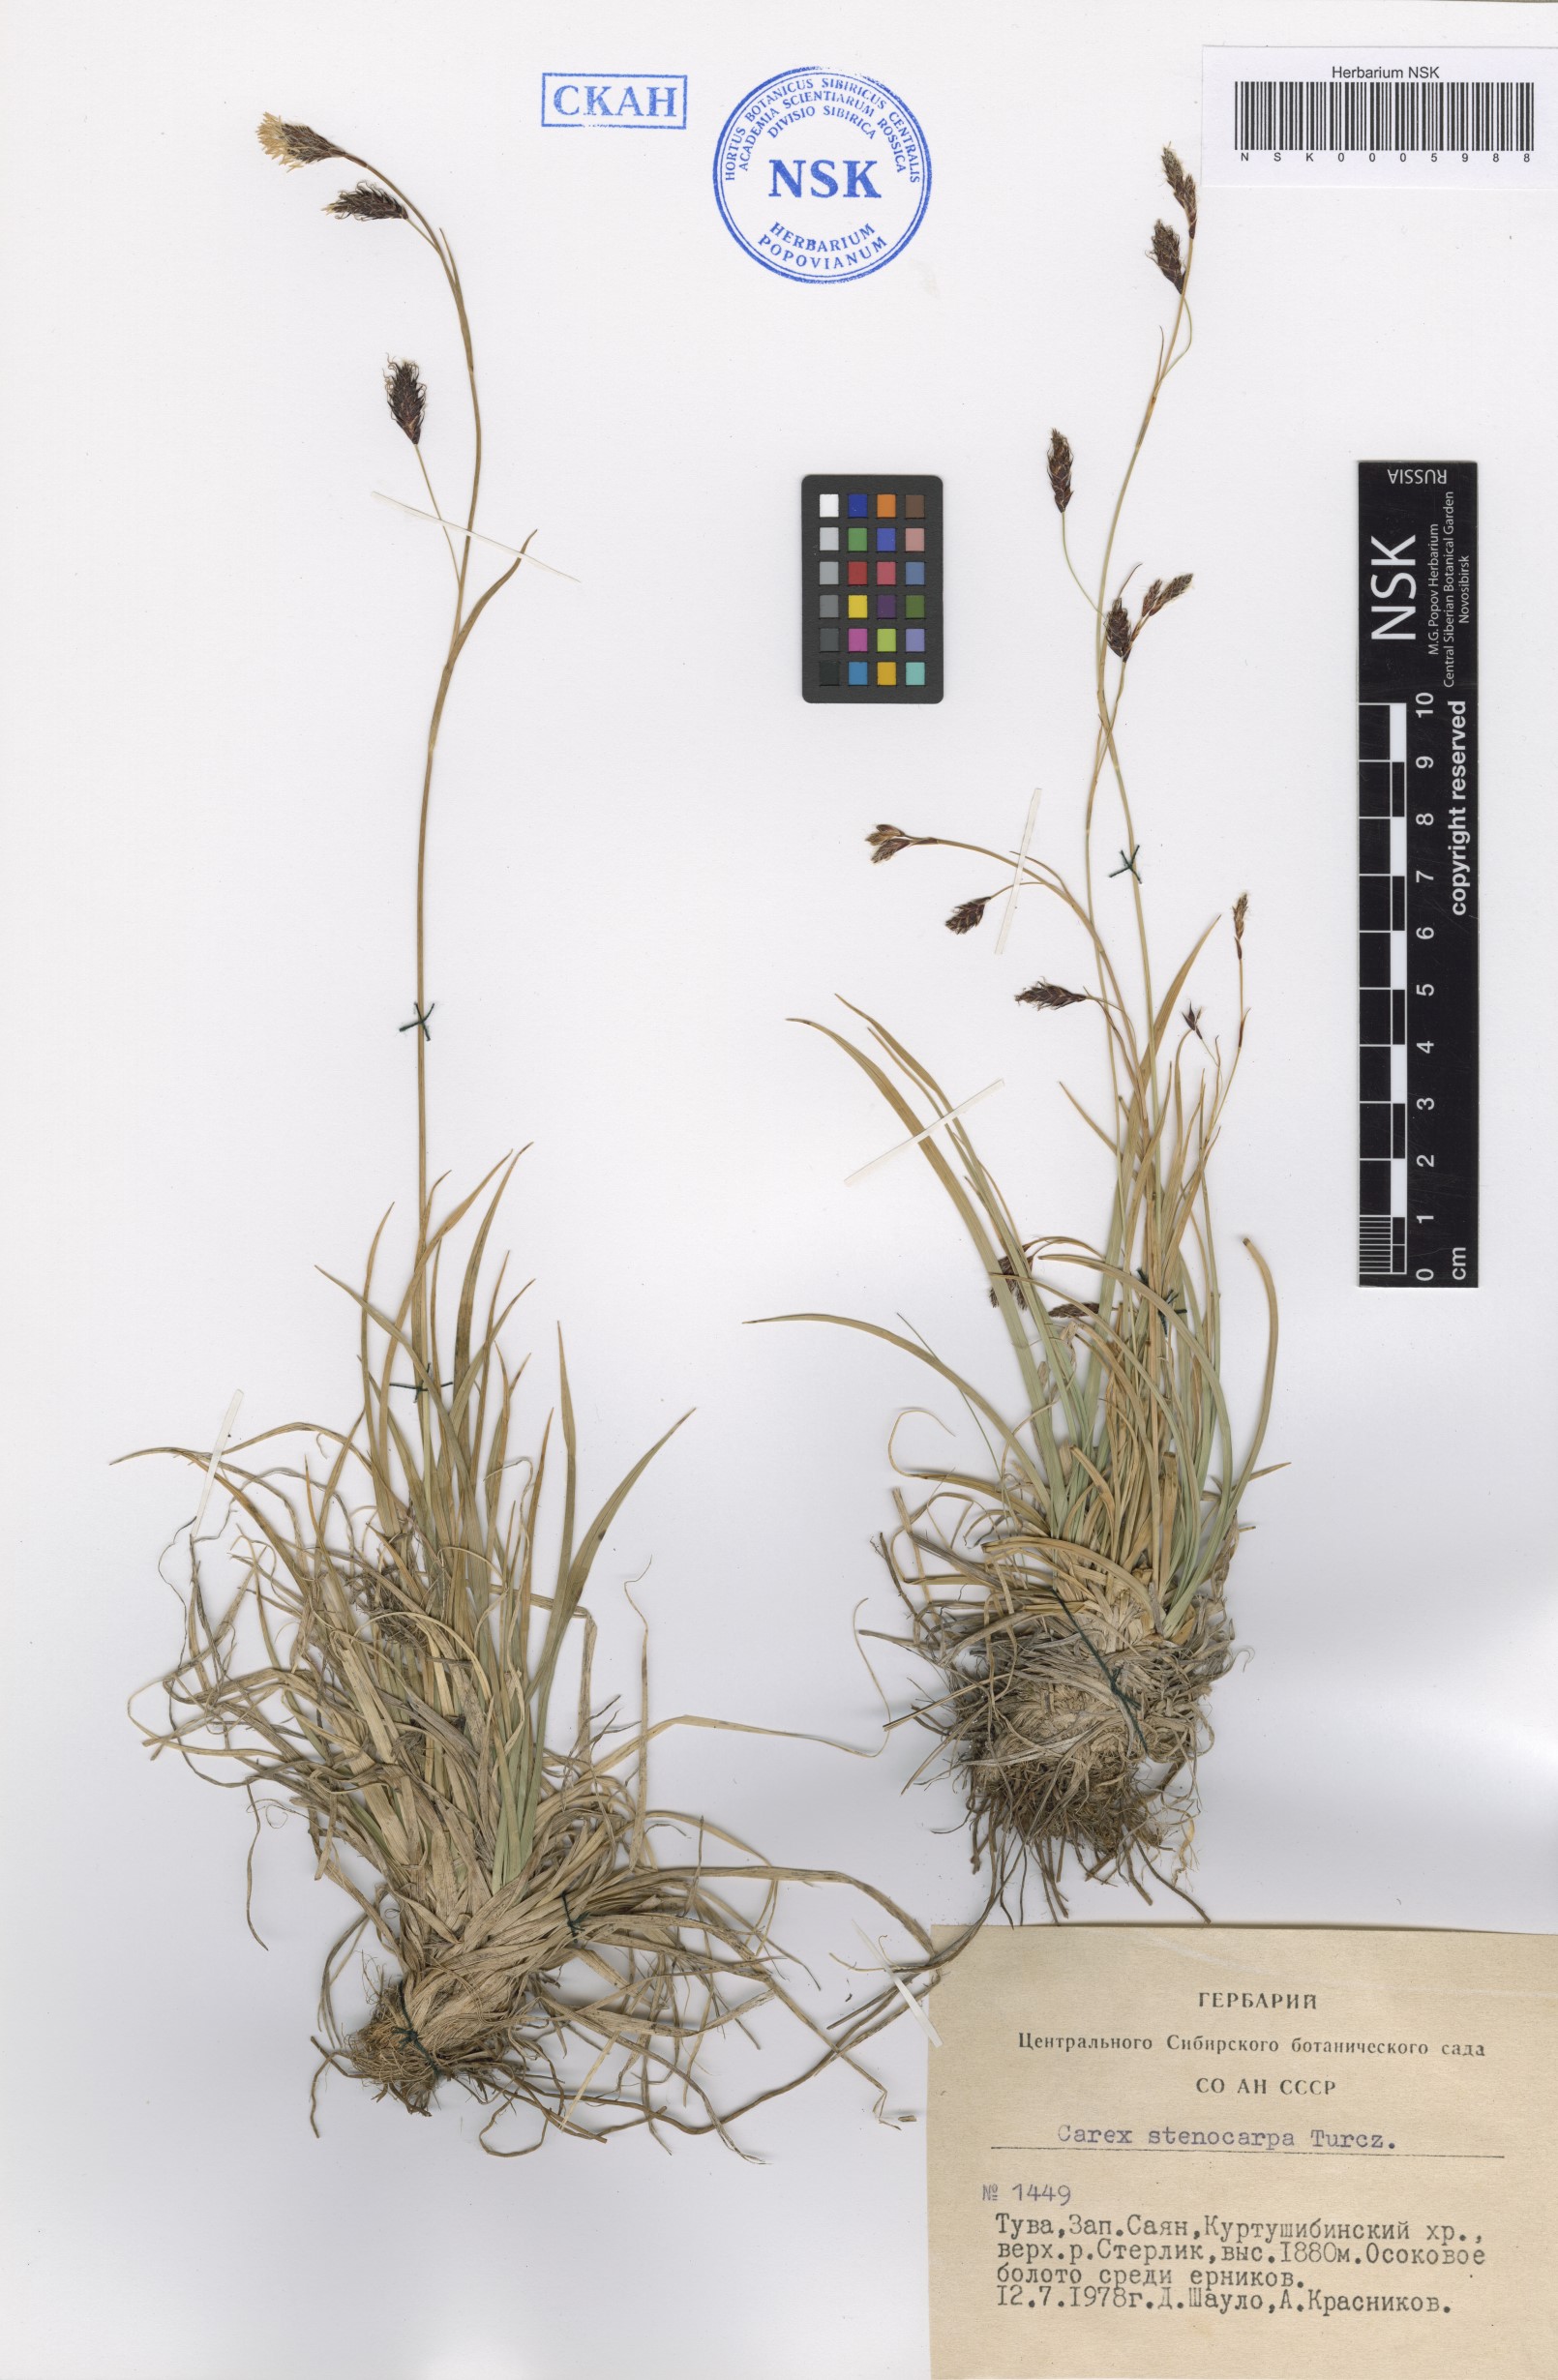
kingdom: Plantae
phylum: Tracheophyta
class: Liliopsida
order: Poales
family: Cyperaceae
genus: Carex
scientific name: Carex stenocarpa
